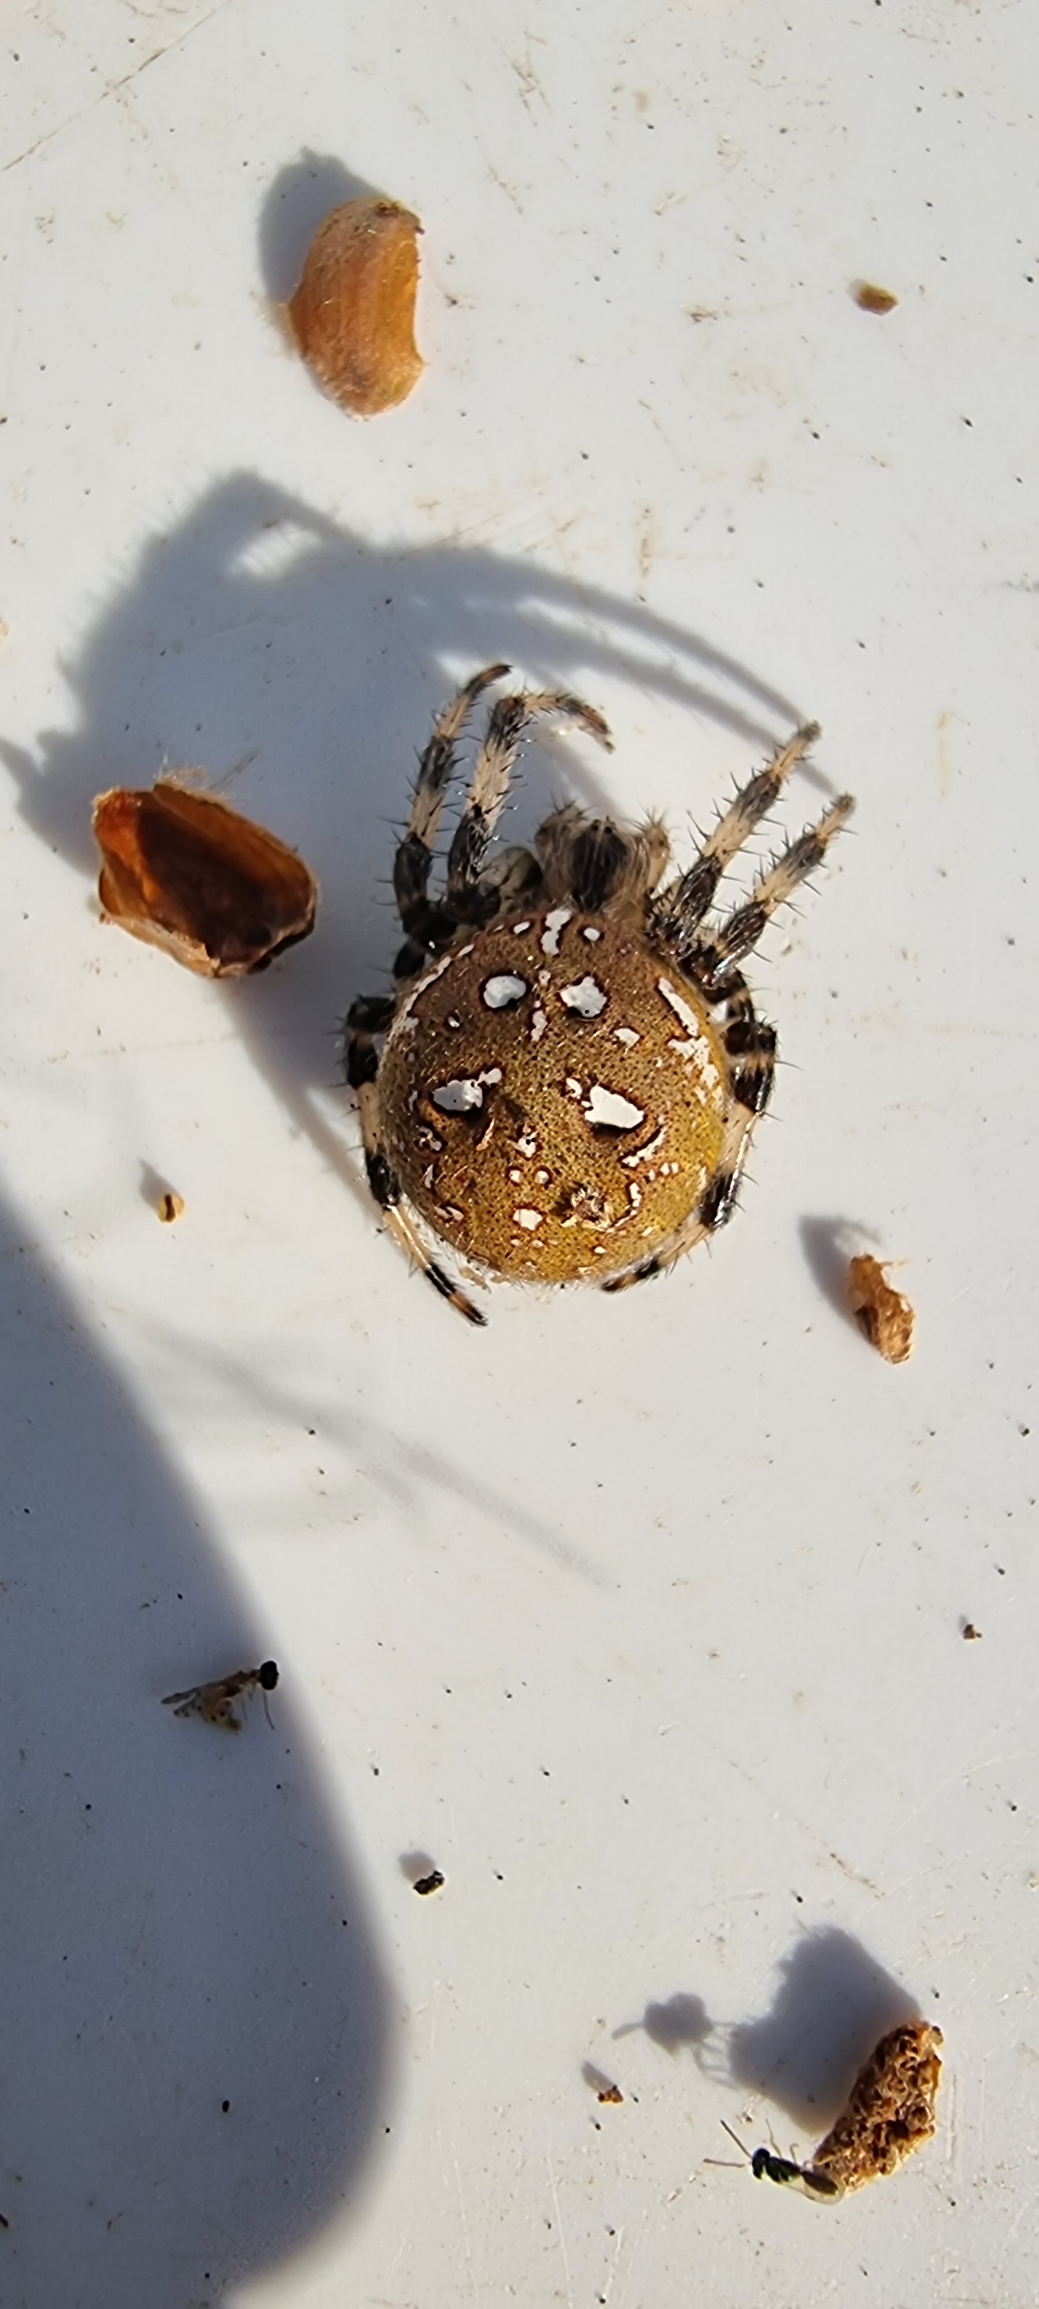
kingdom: Animalia
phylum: Arthropoda
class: Arachnida
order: Araneae
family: Araneidae
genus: Araneus
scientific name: Araneus quadratus
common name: Kvadratedderkop
